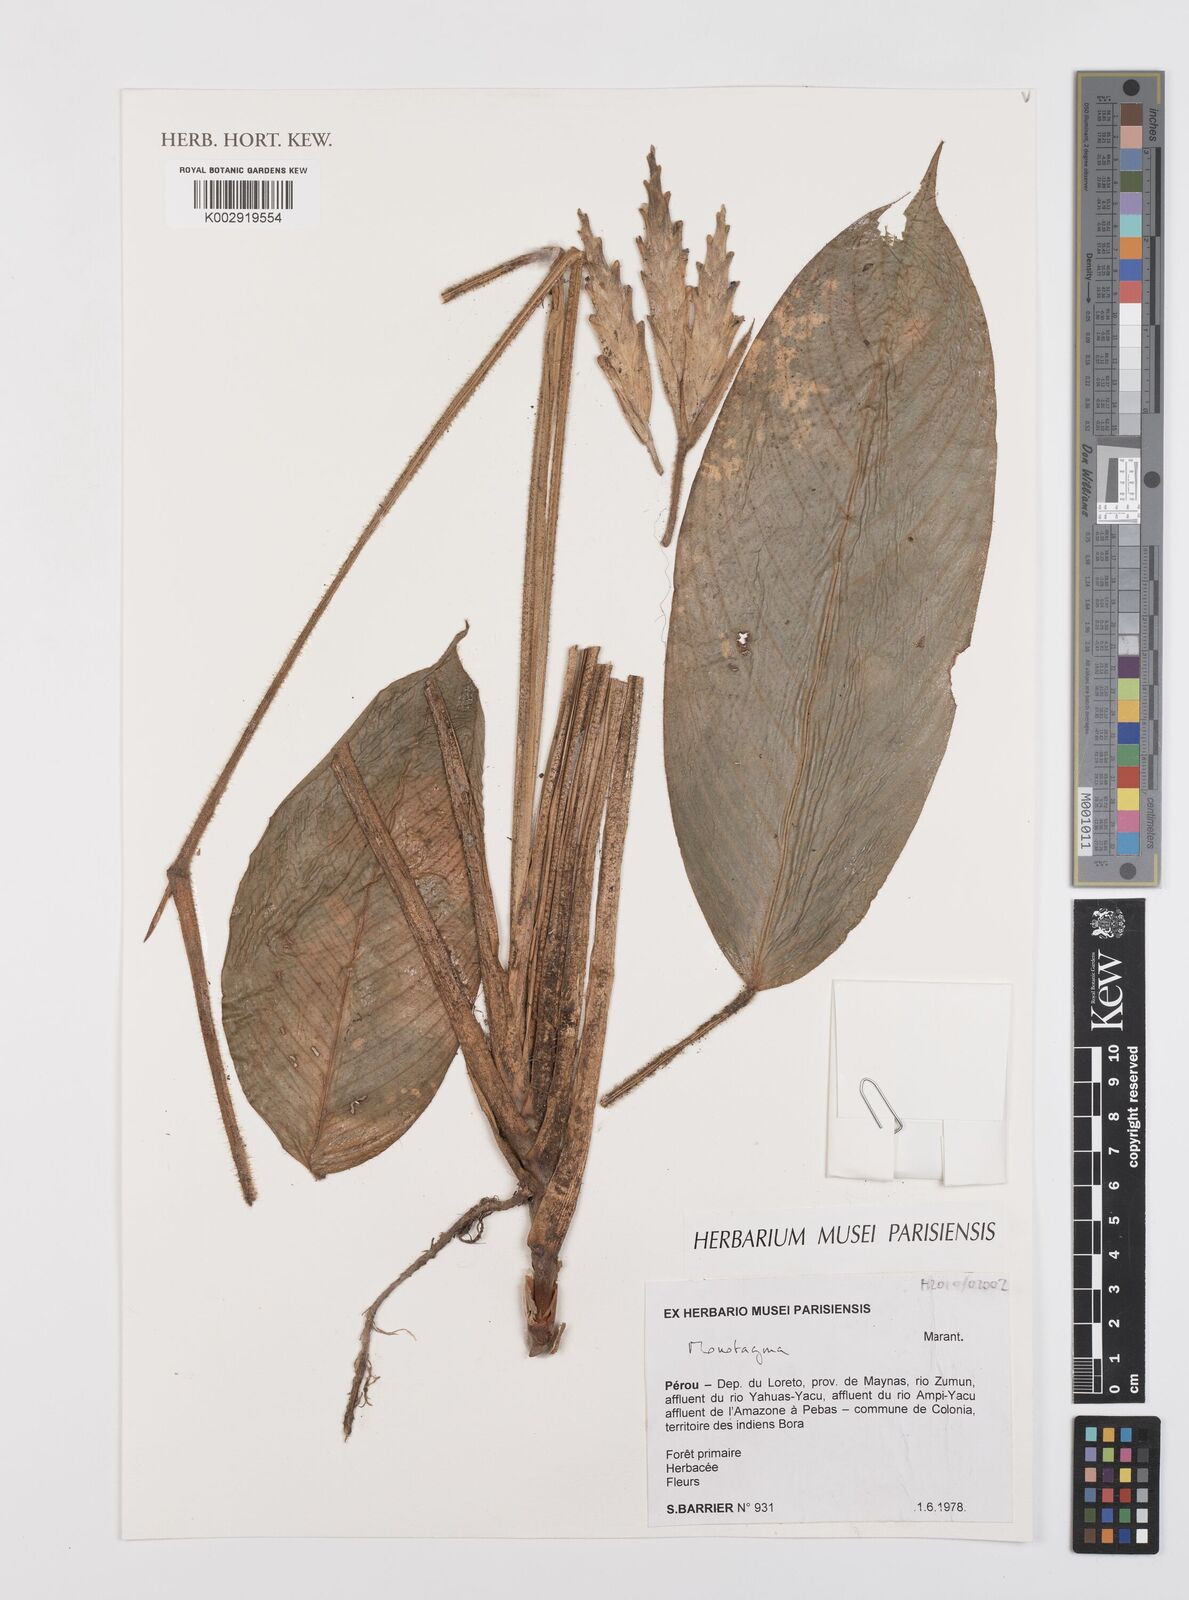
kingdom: Plantae
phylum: Tracheophyta
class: Liliopsida
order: Zingiberales
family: Marantaceae
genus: Monotagma
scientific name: Monotagma
